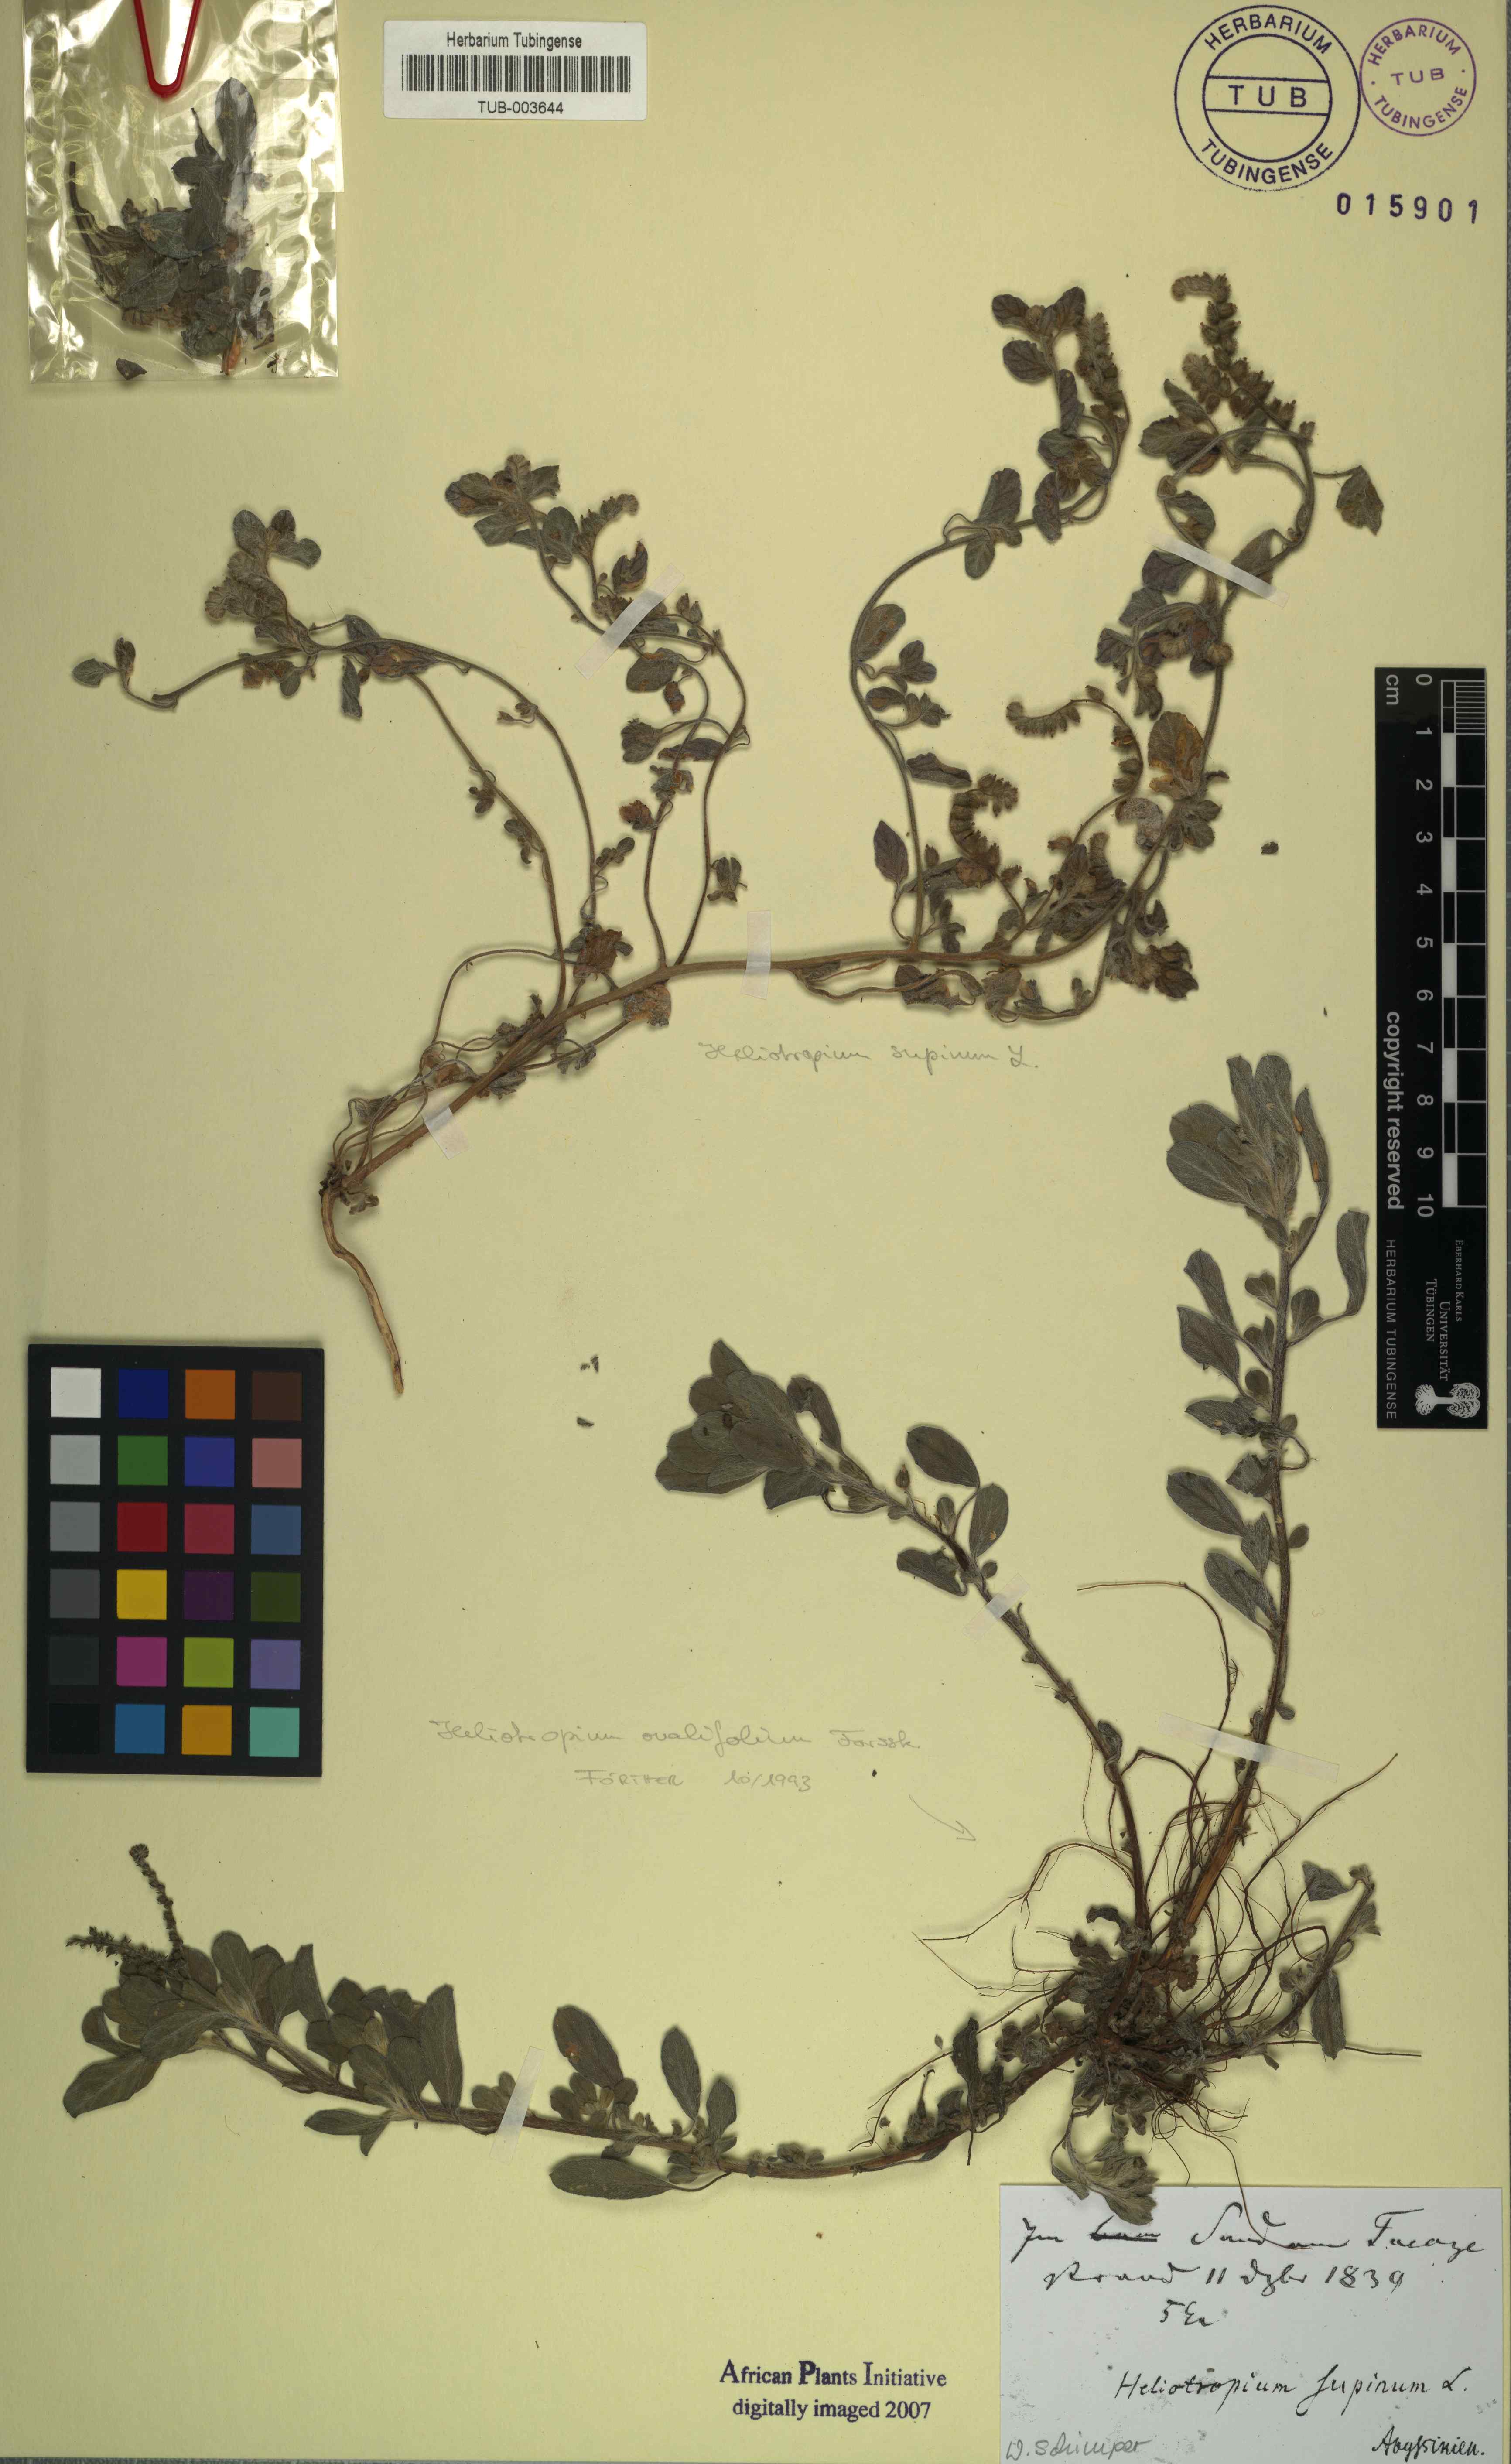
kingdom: Plantae
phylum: Tracheophyta
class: Magnoliopsida
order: Boraginales
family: Heliotropiaceae
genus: Heliotropium
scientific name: Heliotropium supinum
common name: Dwarf heliotrope
